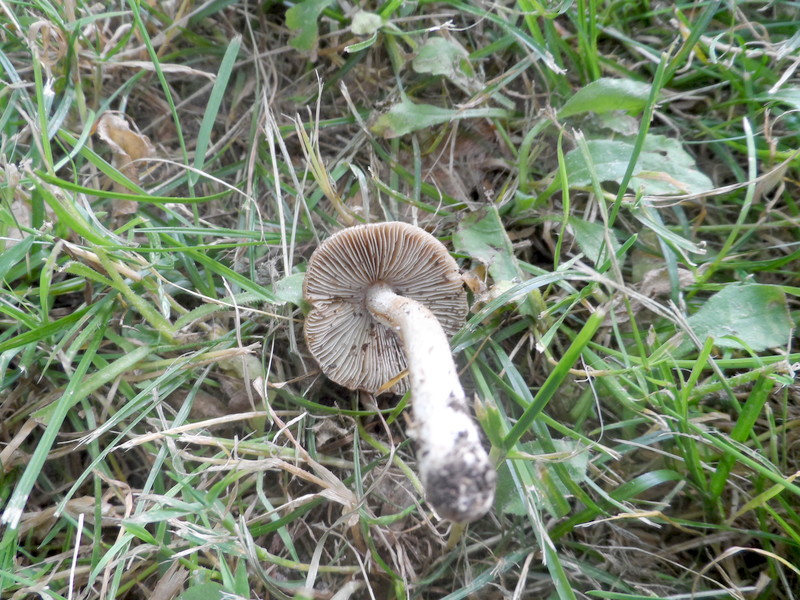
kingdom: Fungi
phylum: Basidiomycota
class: Agaricomycetes
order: Agaricales
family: Inocybaceae
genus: Pseudosperma
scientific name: Pseudosperma rimosum
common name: Split fibrecap
